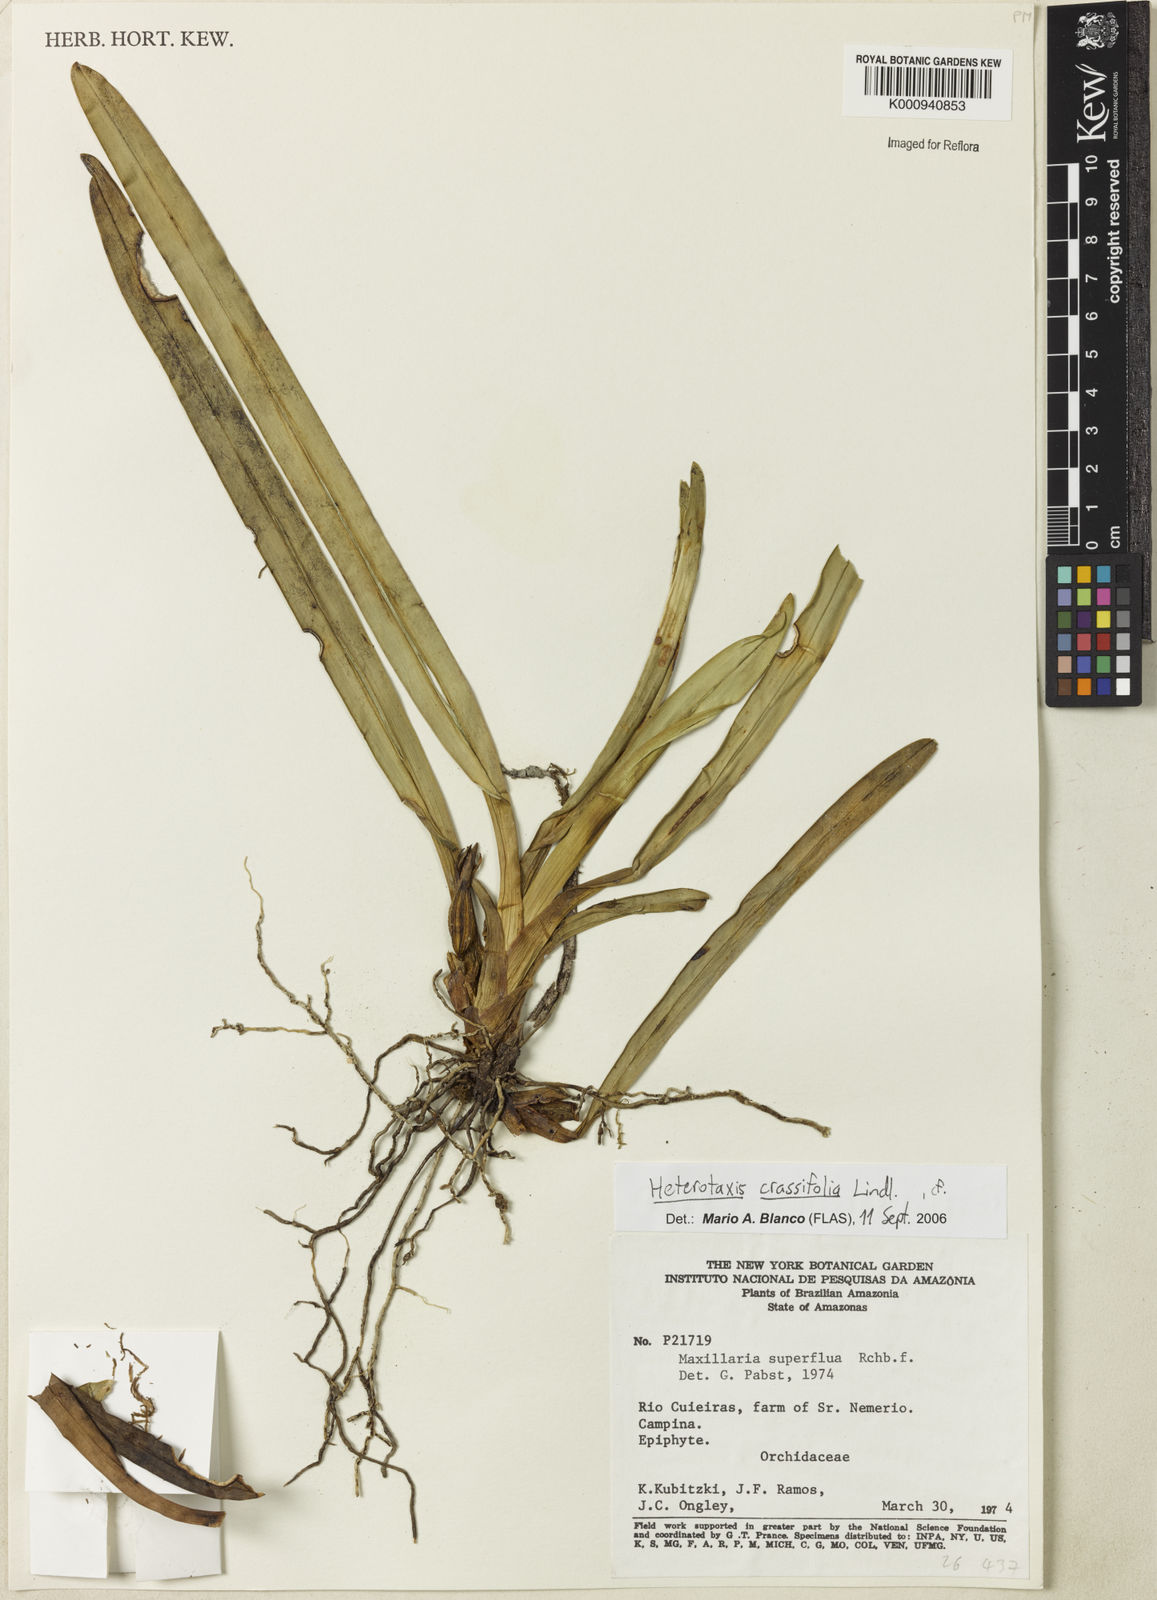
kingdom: Plantae
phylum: Tracheophyta
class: Liliopsida
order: Asparagales
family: Orchidaceae
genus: Maxillaria
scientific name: Maxillaria crassifolia
